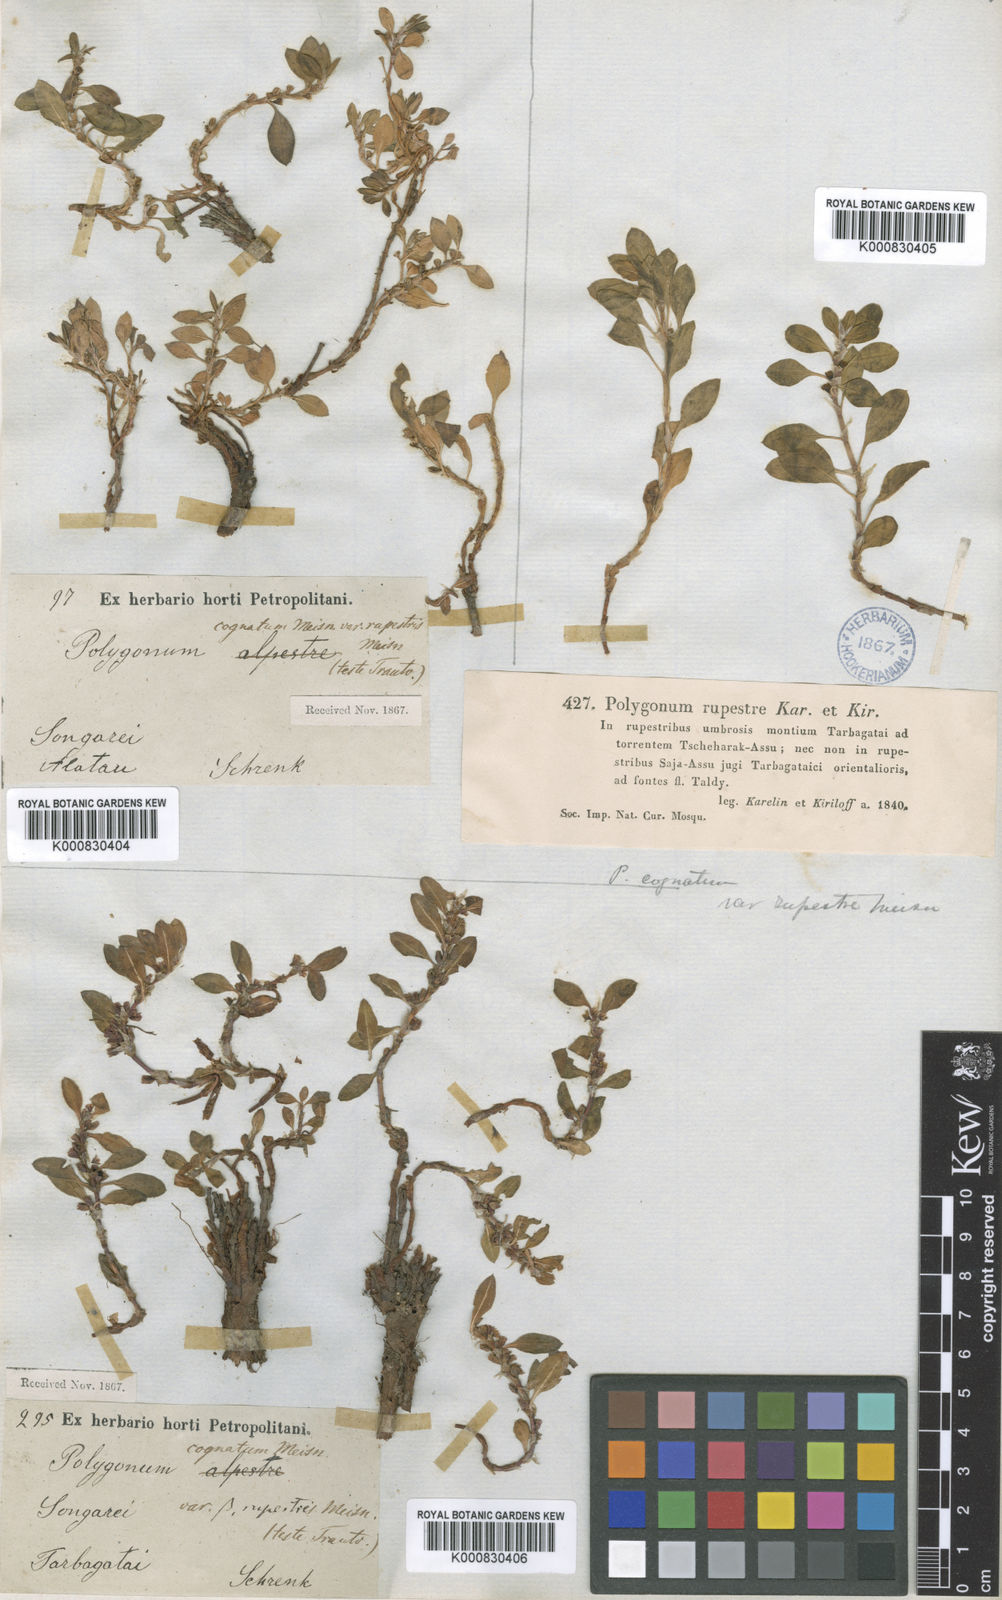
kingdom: Plantae
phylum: Tracheophyta
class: Magnoliopsida
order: Caryophyllales
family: Polygonaceae
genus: Polygonum
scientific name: Polygonum cognatum
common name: Indian knotgrass
